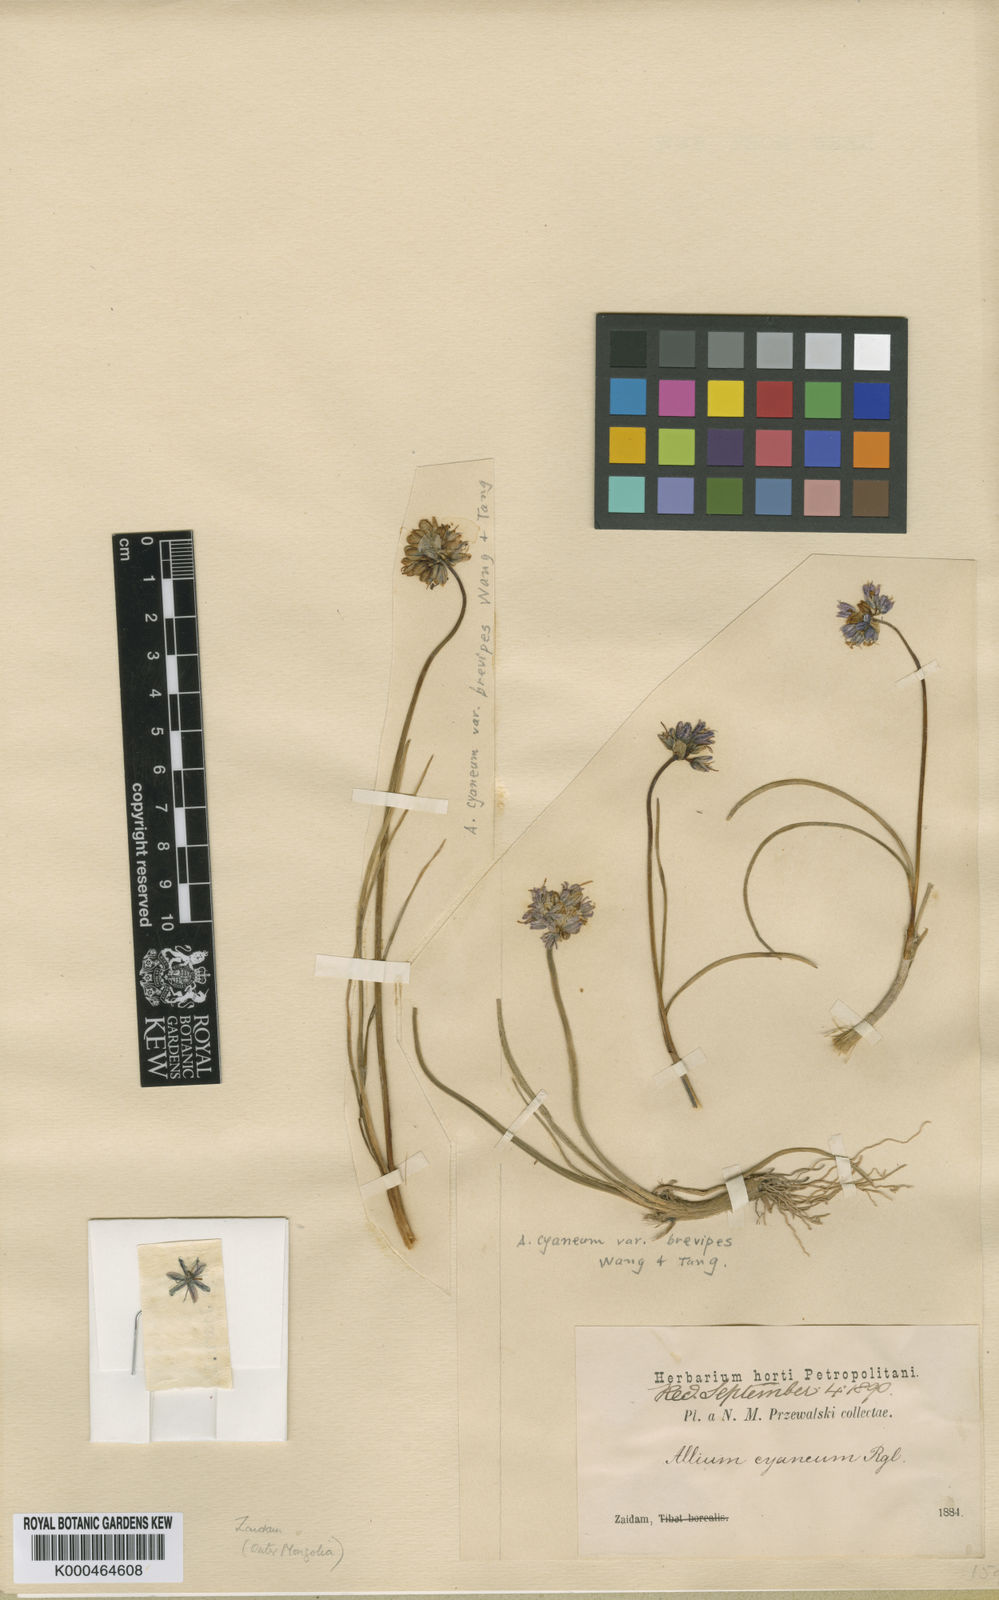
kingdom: Plantae
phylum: Tracheophyta
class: Liliopsida
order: Asparagales
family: Amaryllidaceae
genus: Allium
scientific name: Allium cyaneum
